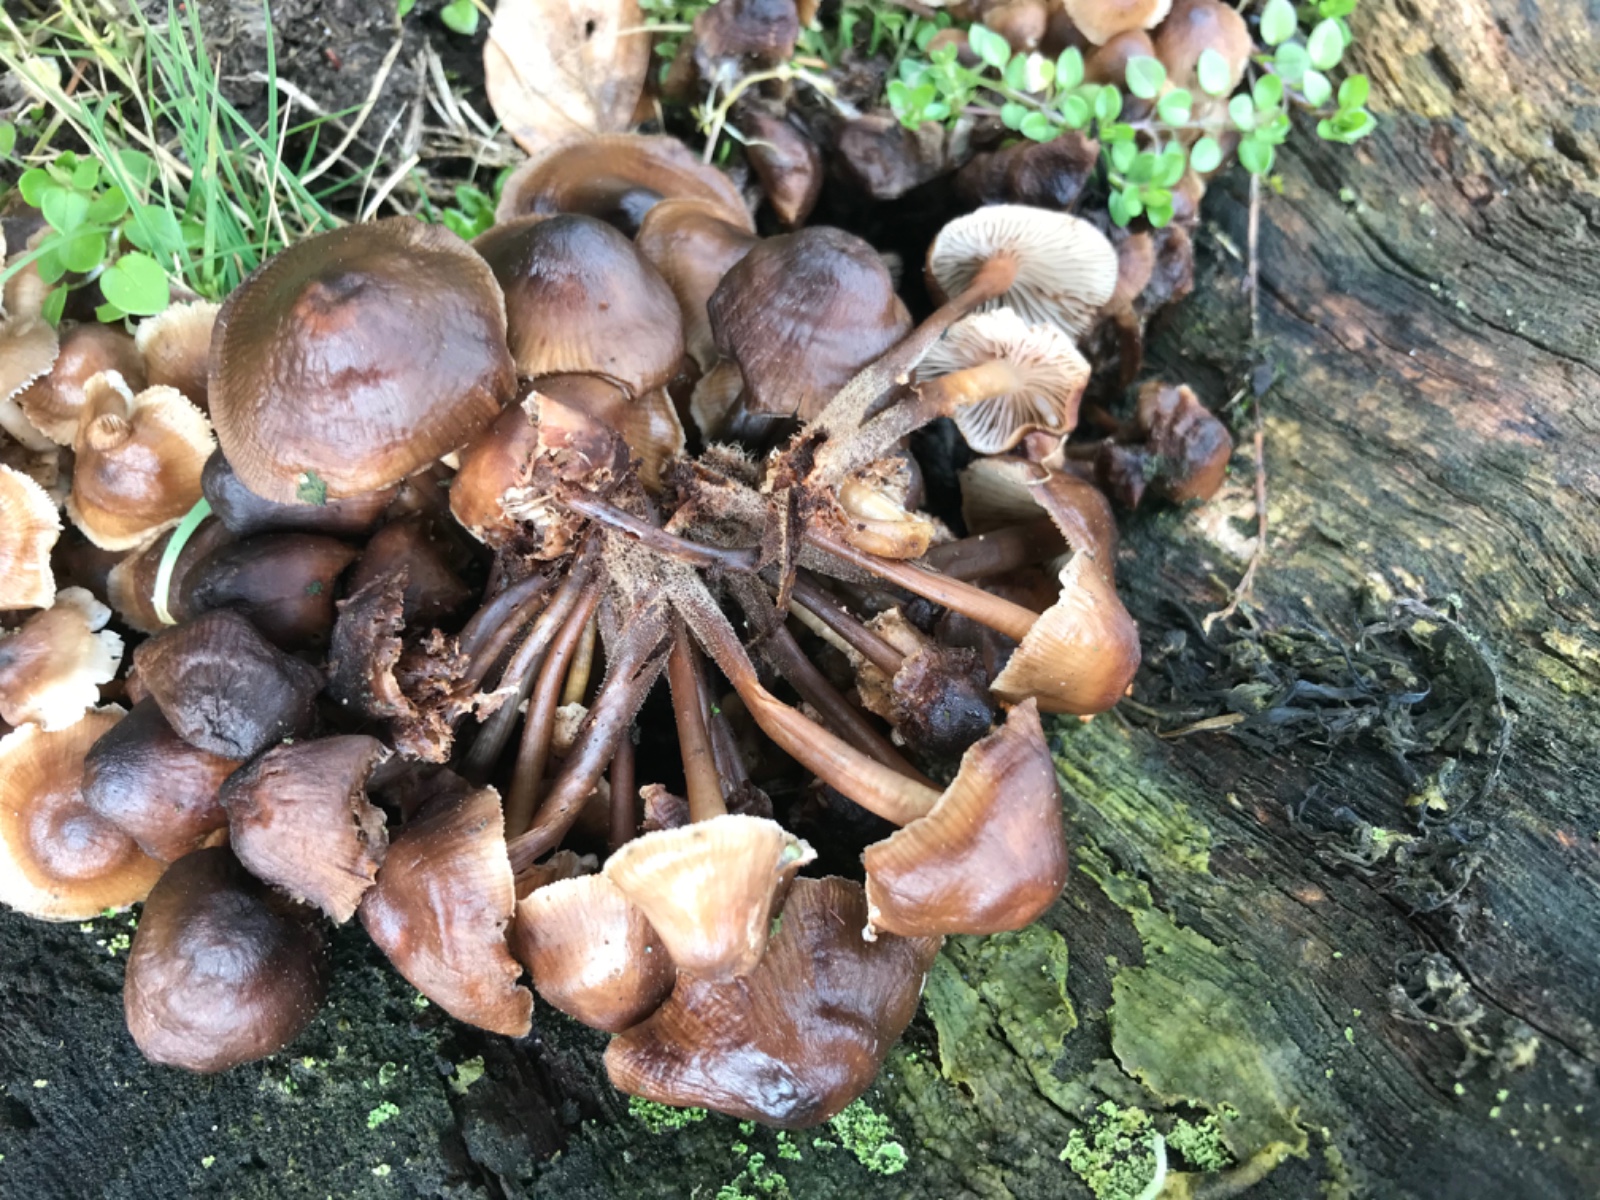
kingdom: Fungi
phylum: Basidiomycota
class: Agaricomycetes
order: Agaricales
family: Mycenaceae
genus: Mycena
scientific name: Mycena tintinnabulum
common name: vinter-huesvamp
